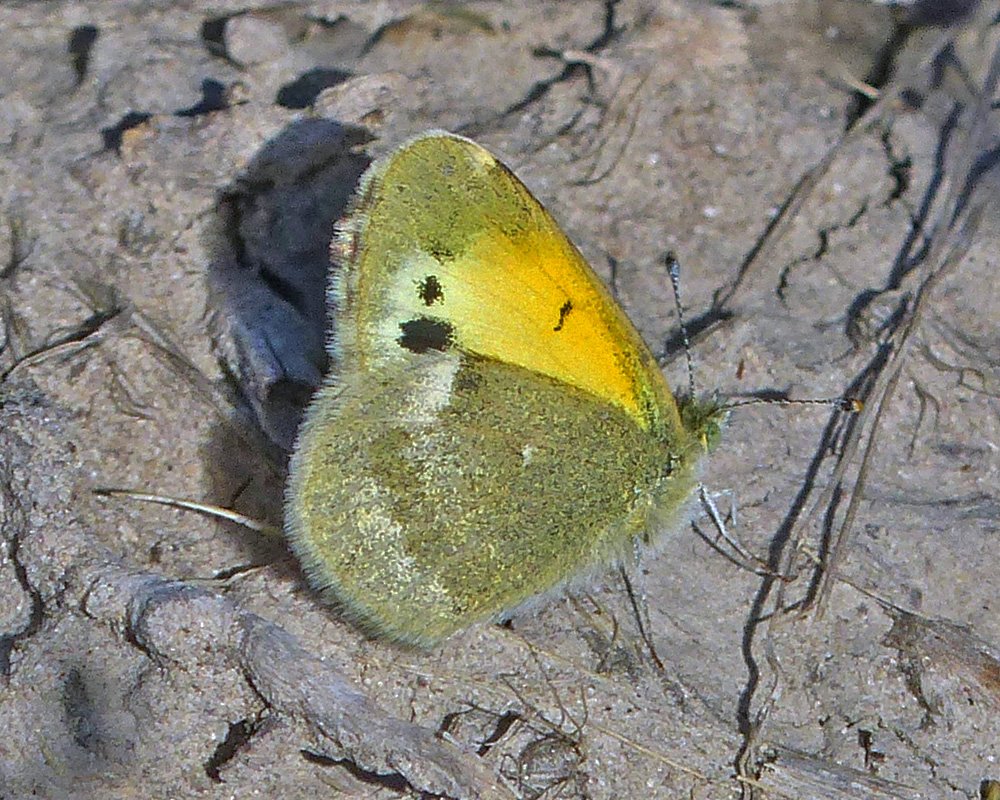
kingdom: Animalia
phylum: Arthropoda
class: Insecta
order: Lepidoptera
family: Pieridae
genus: Nathalis
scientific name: Nathalis iole
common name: Dainty Sulphur
